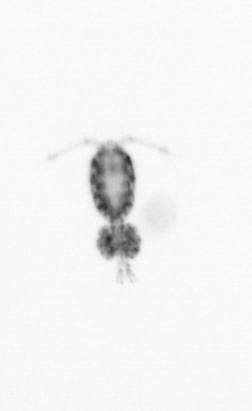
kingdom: Animalia
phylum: Arthropoda
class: Copepoda
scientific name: Copepoda
